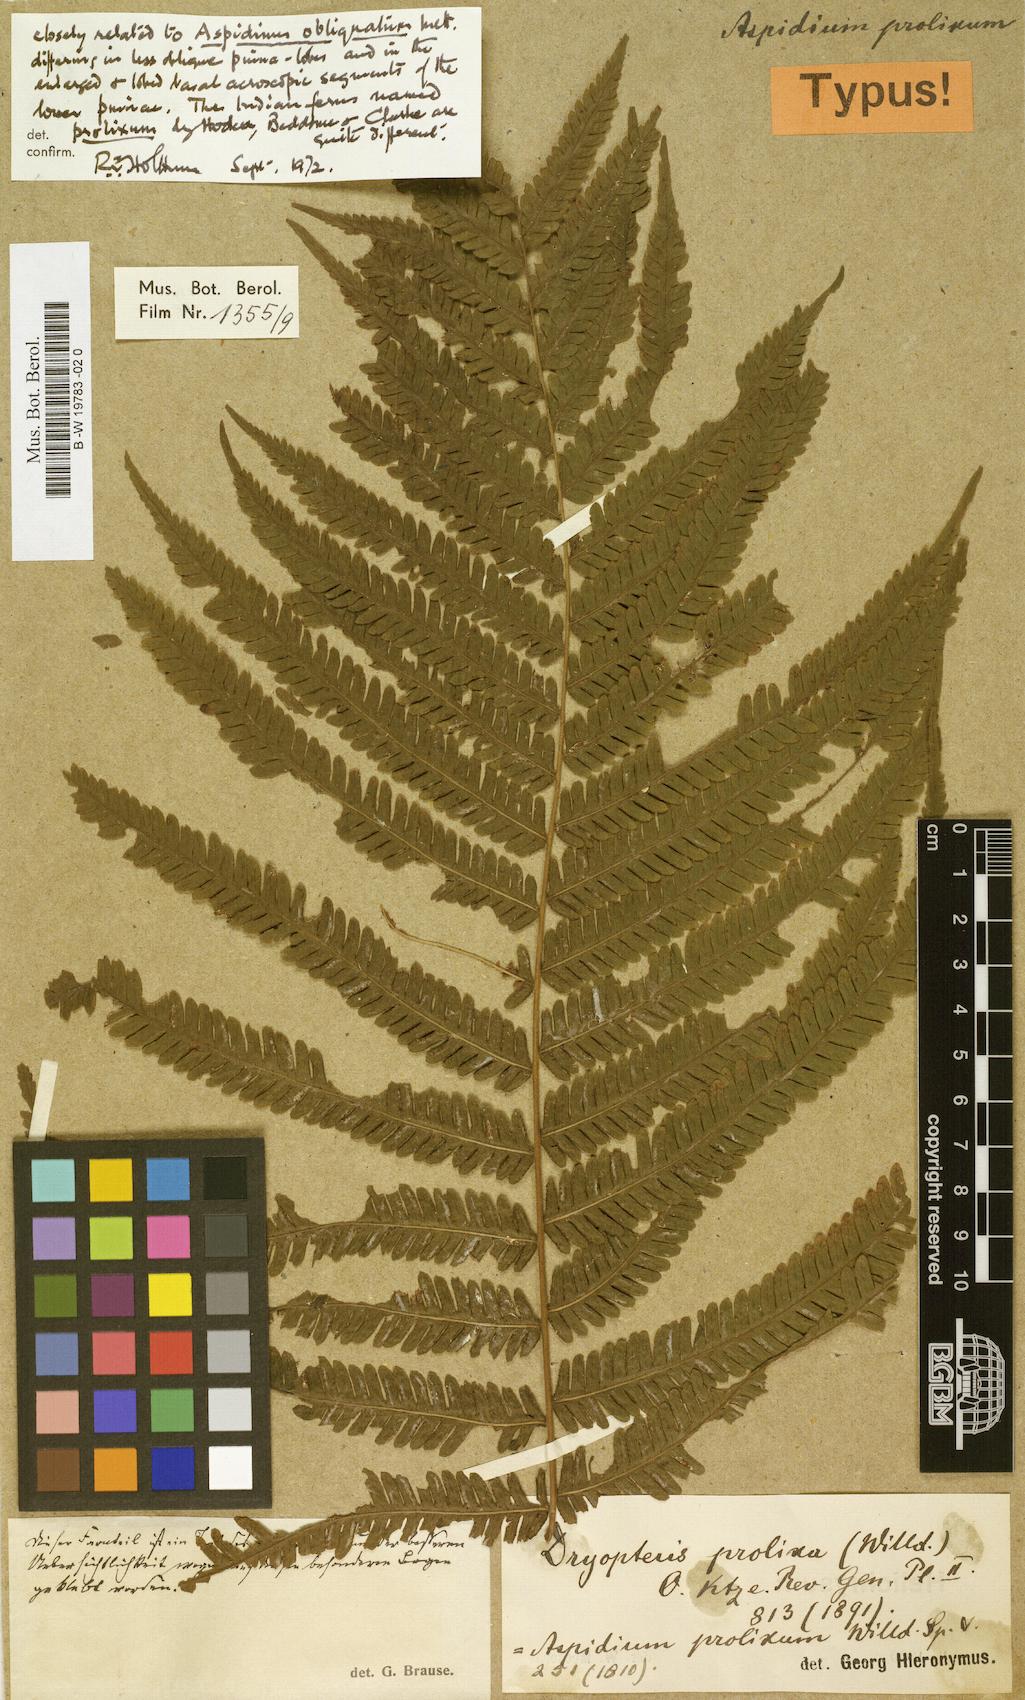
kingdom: Plantae
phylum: Tracheophyta
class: Polypodiopsida
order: Polypodiales
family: Thelypteridaceae
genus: Christella
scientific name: Christella prolixa
